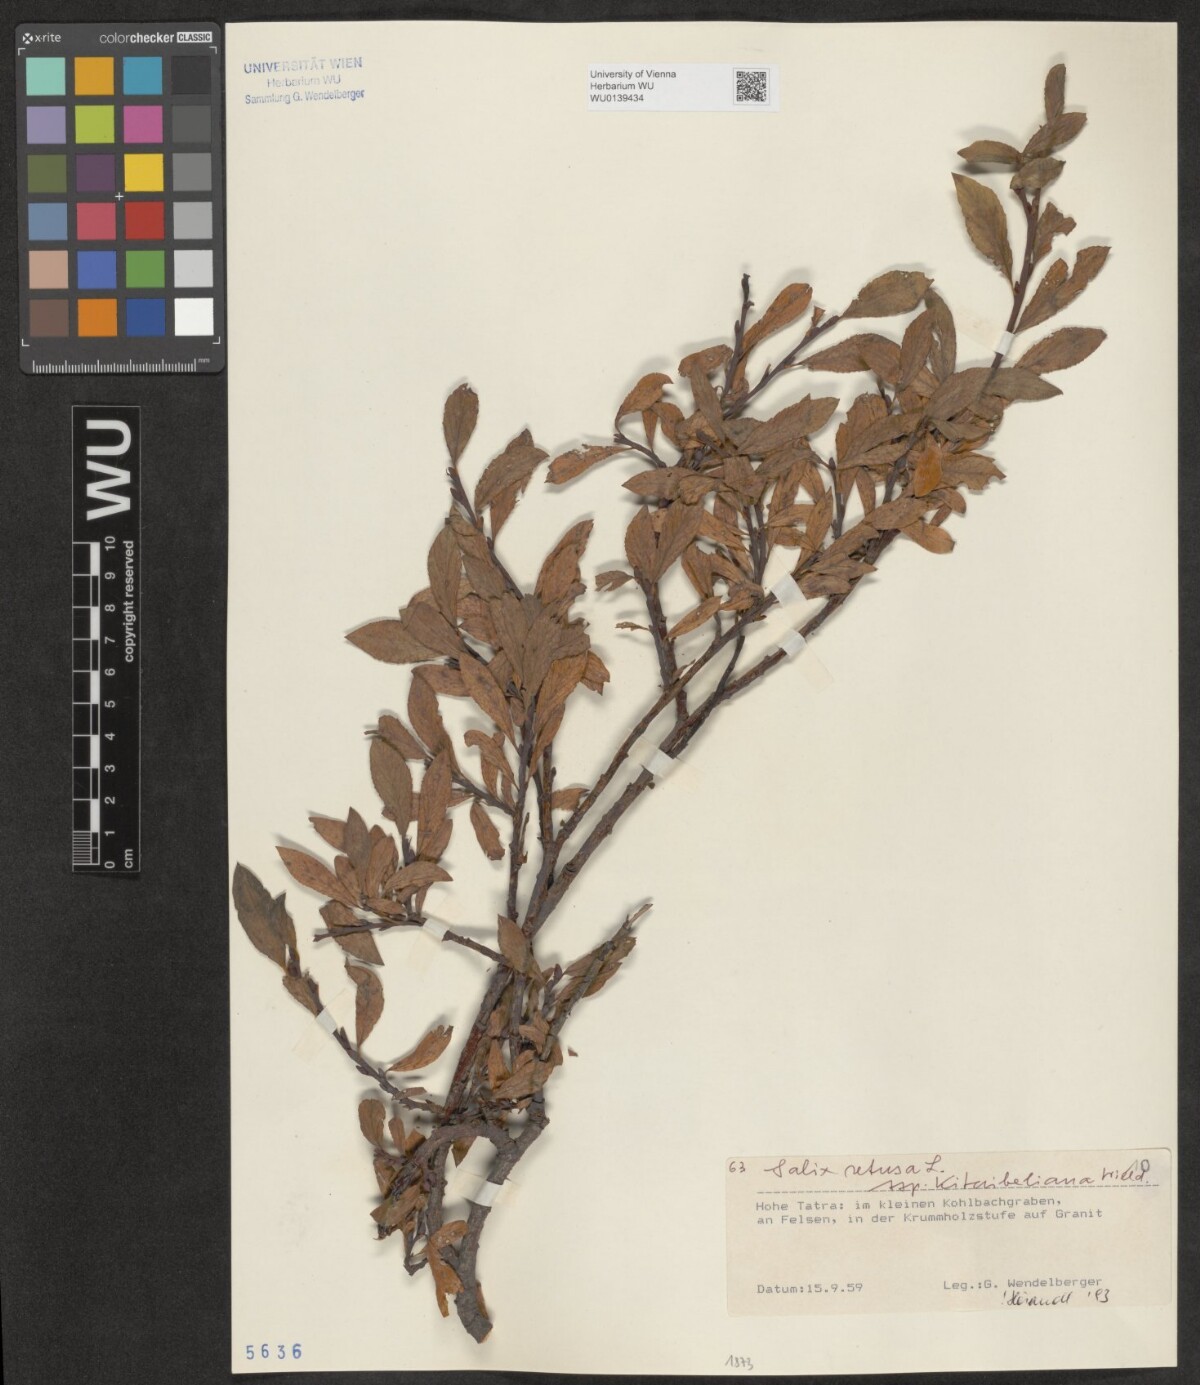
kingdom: Plantae
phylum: Tracheophyta
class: Magnoliopsida
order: Malpighiales
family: Salicaceae
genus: Salix
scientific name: Salix retusa
